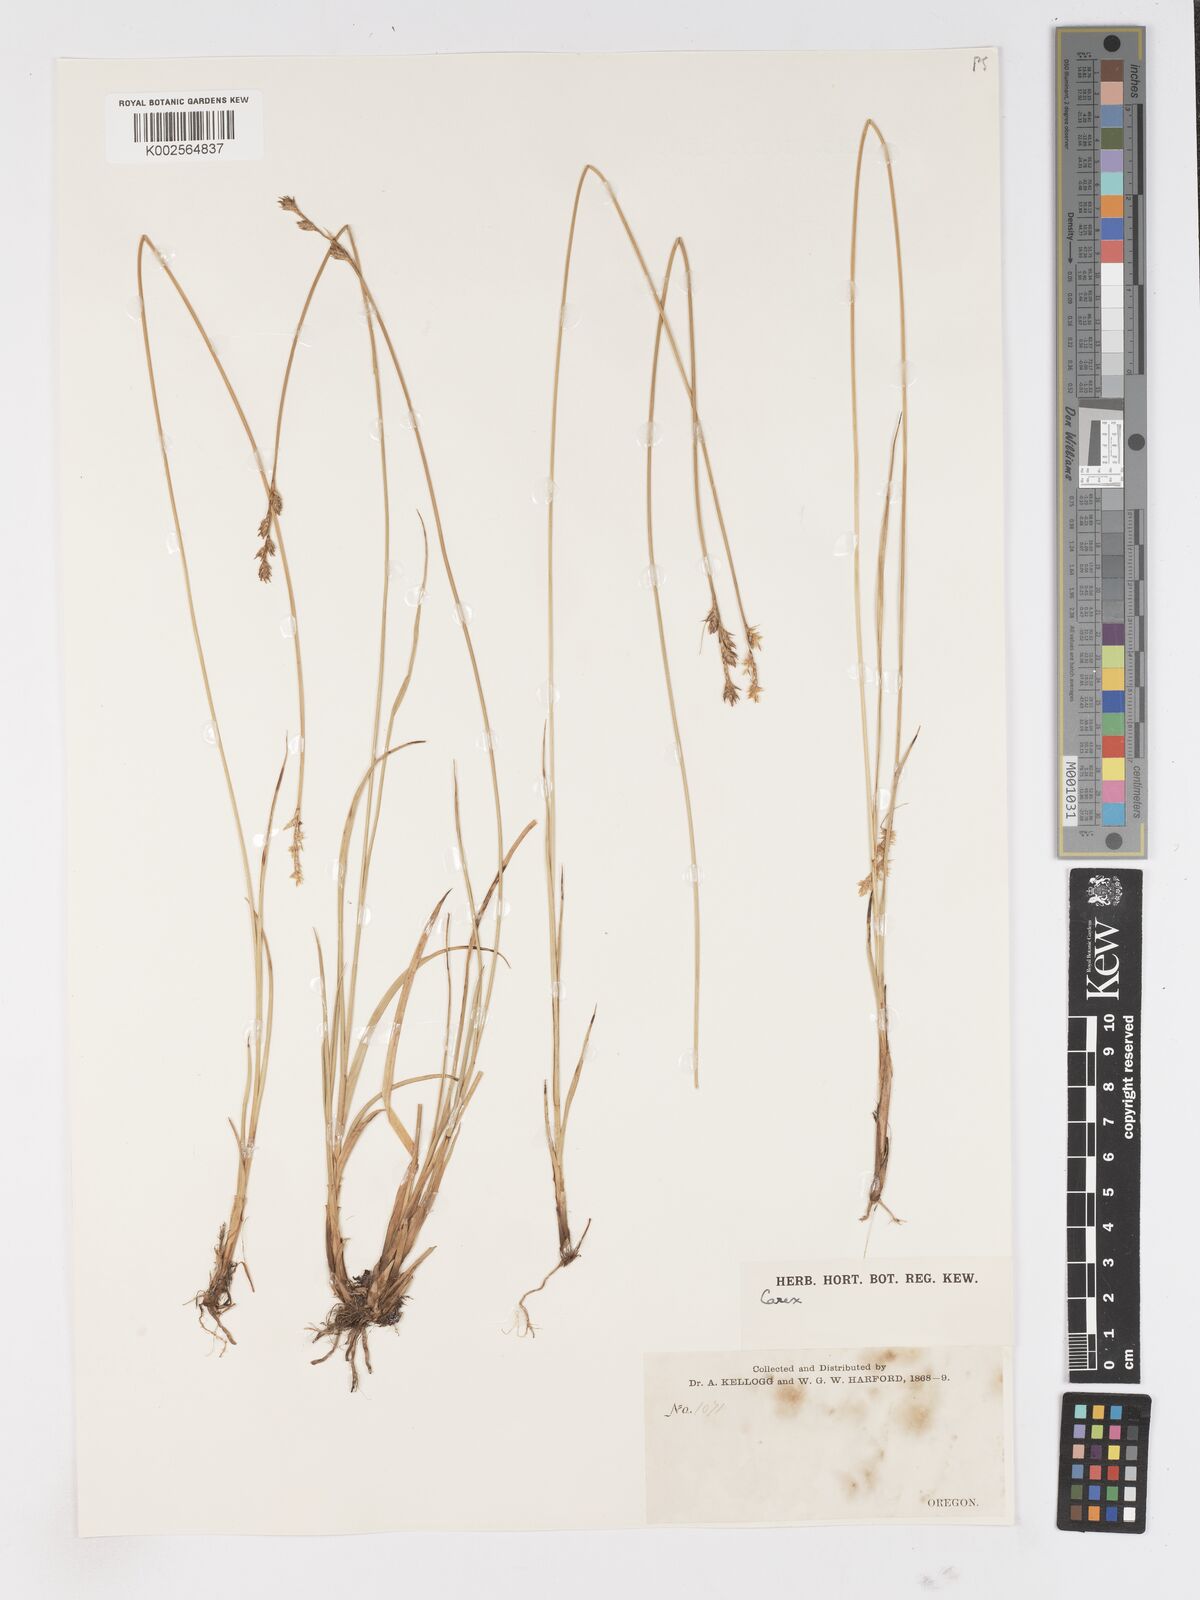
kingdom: Plantae
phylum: Tracheophyta
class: Liliopsida
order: Poales
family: Cyperaceae
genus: Carex
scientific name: Carex
